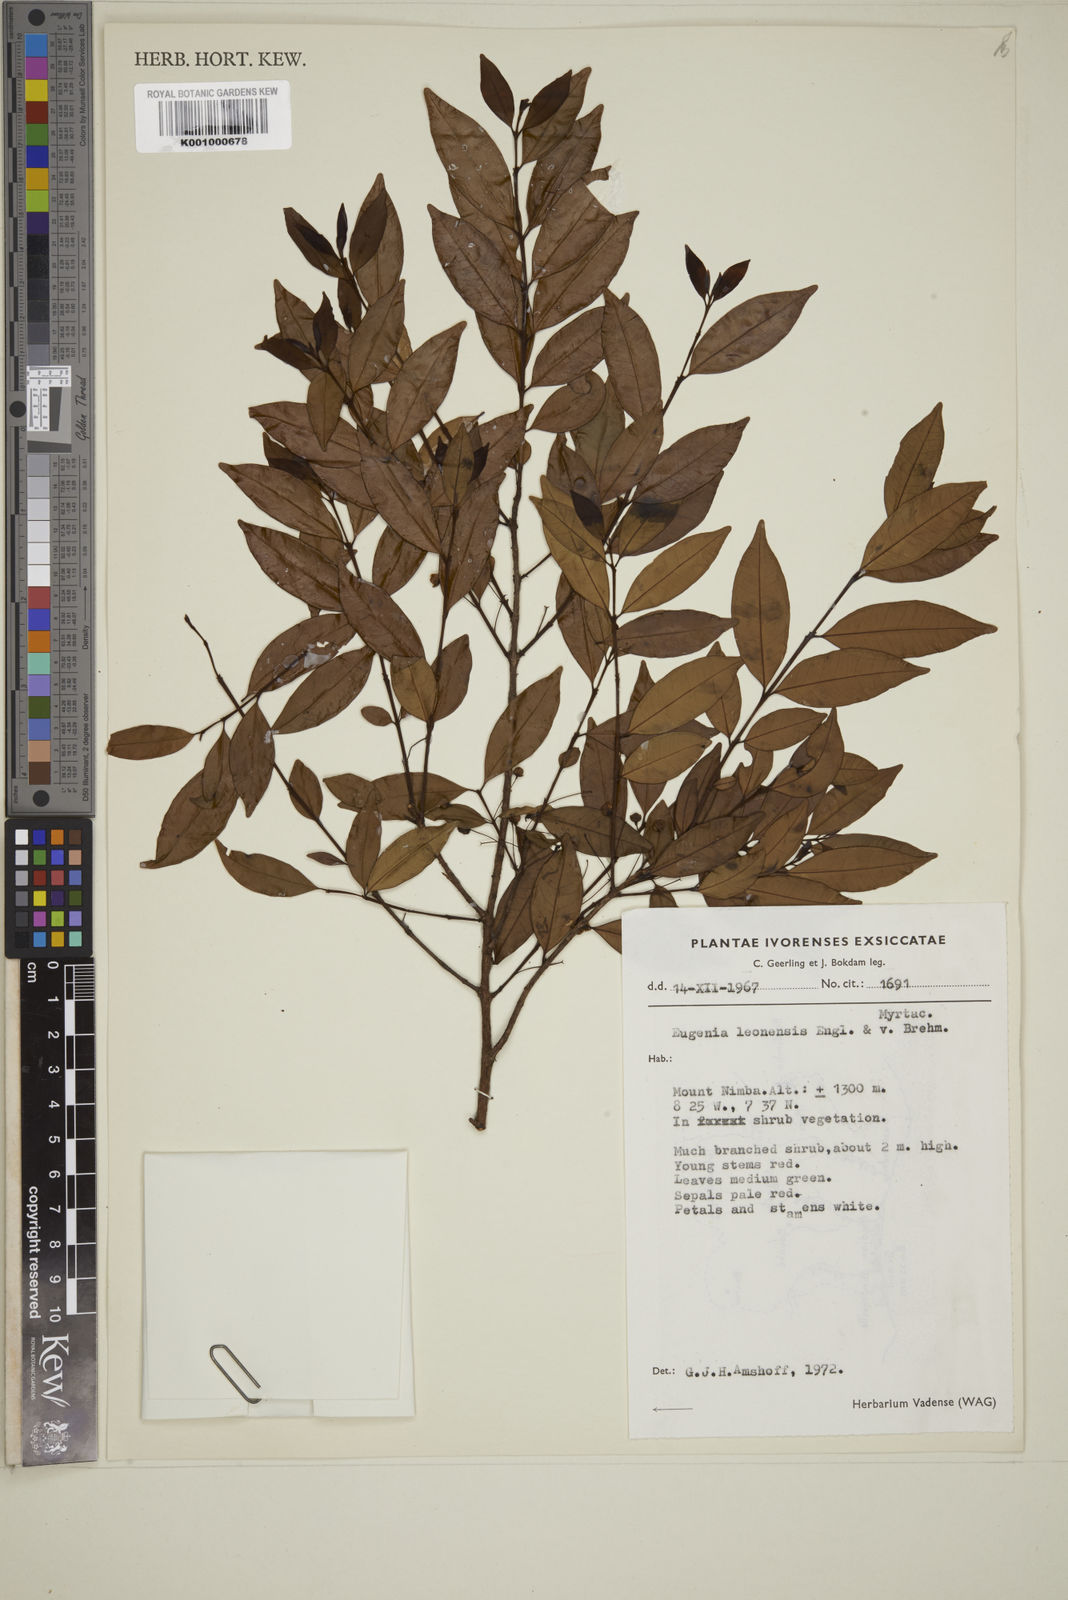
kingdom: Plantae
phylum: Tracheophyta
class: Magnoliopsida
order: Myrtales
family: Myrtaceae
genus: Eugenia
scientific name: Eugenia leonensis
